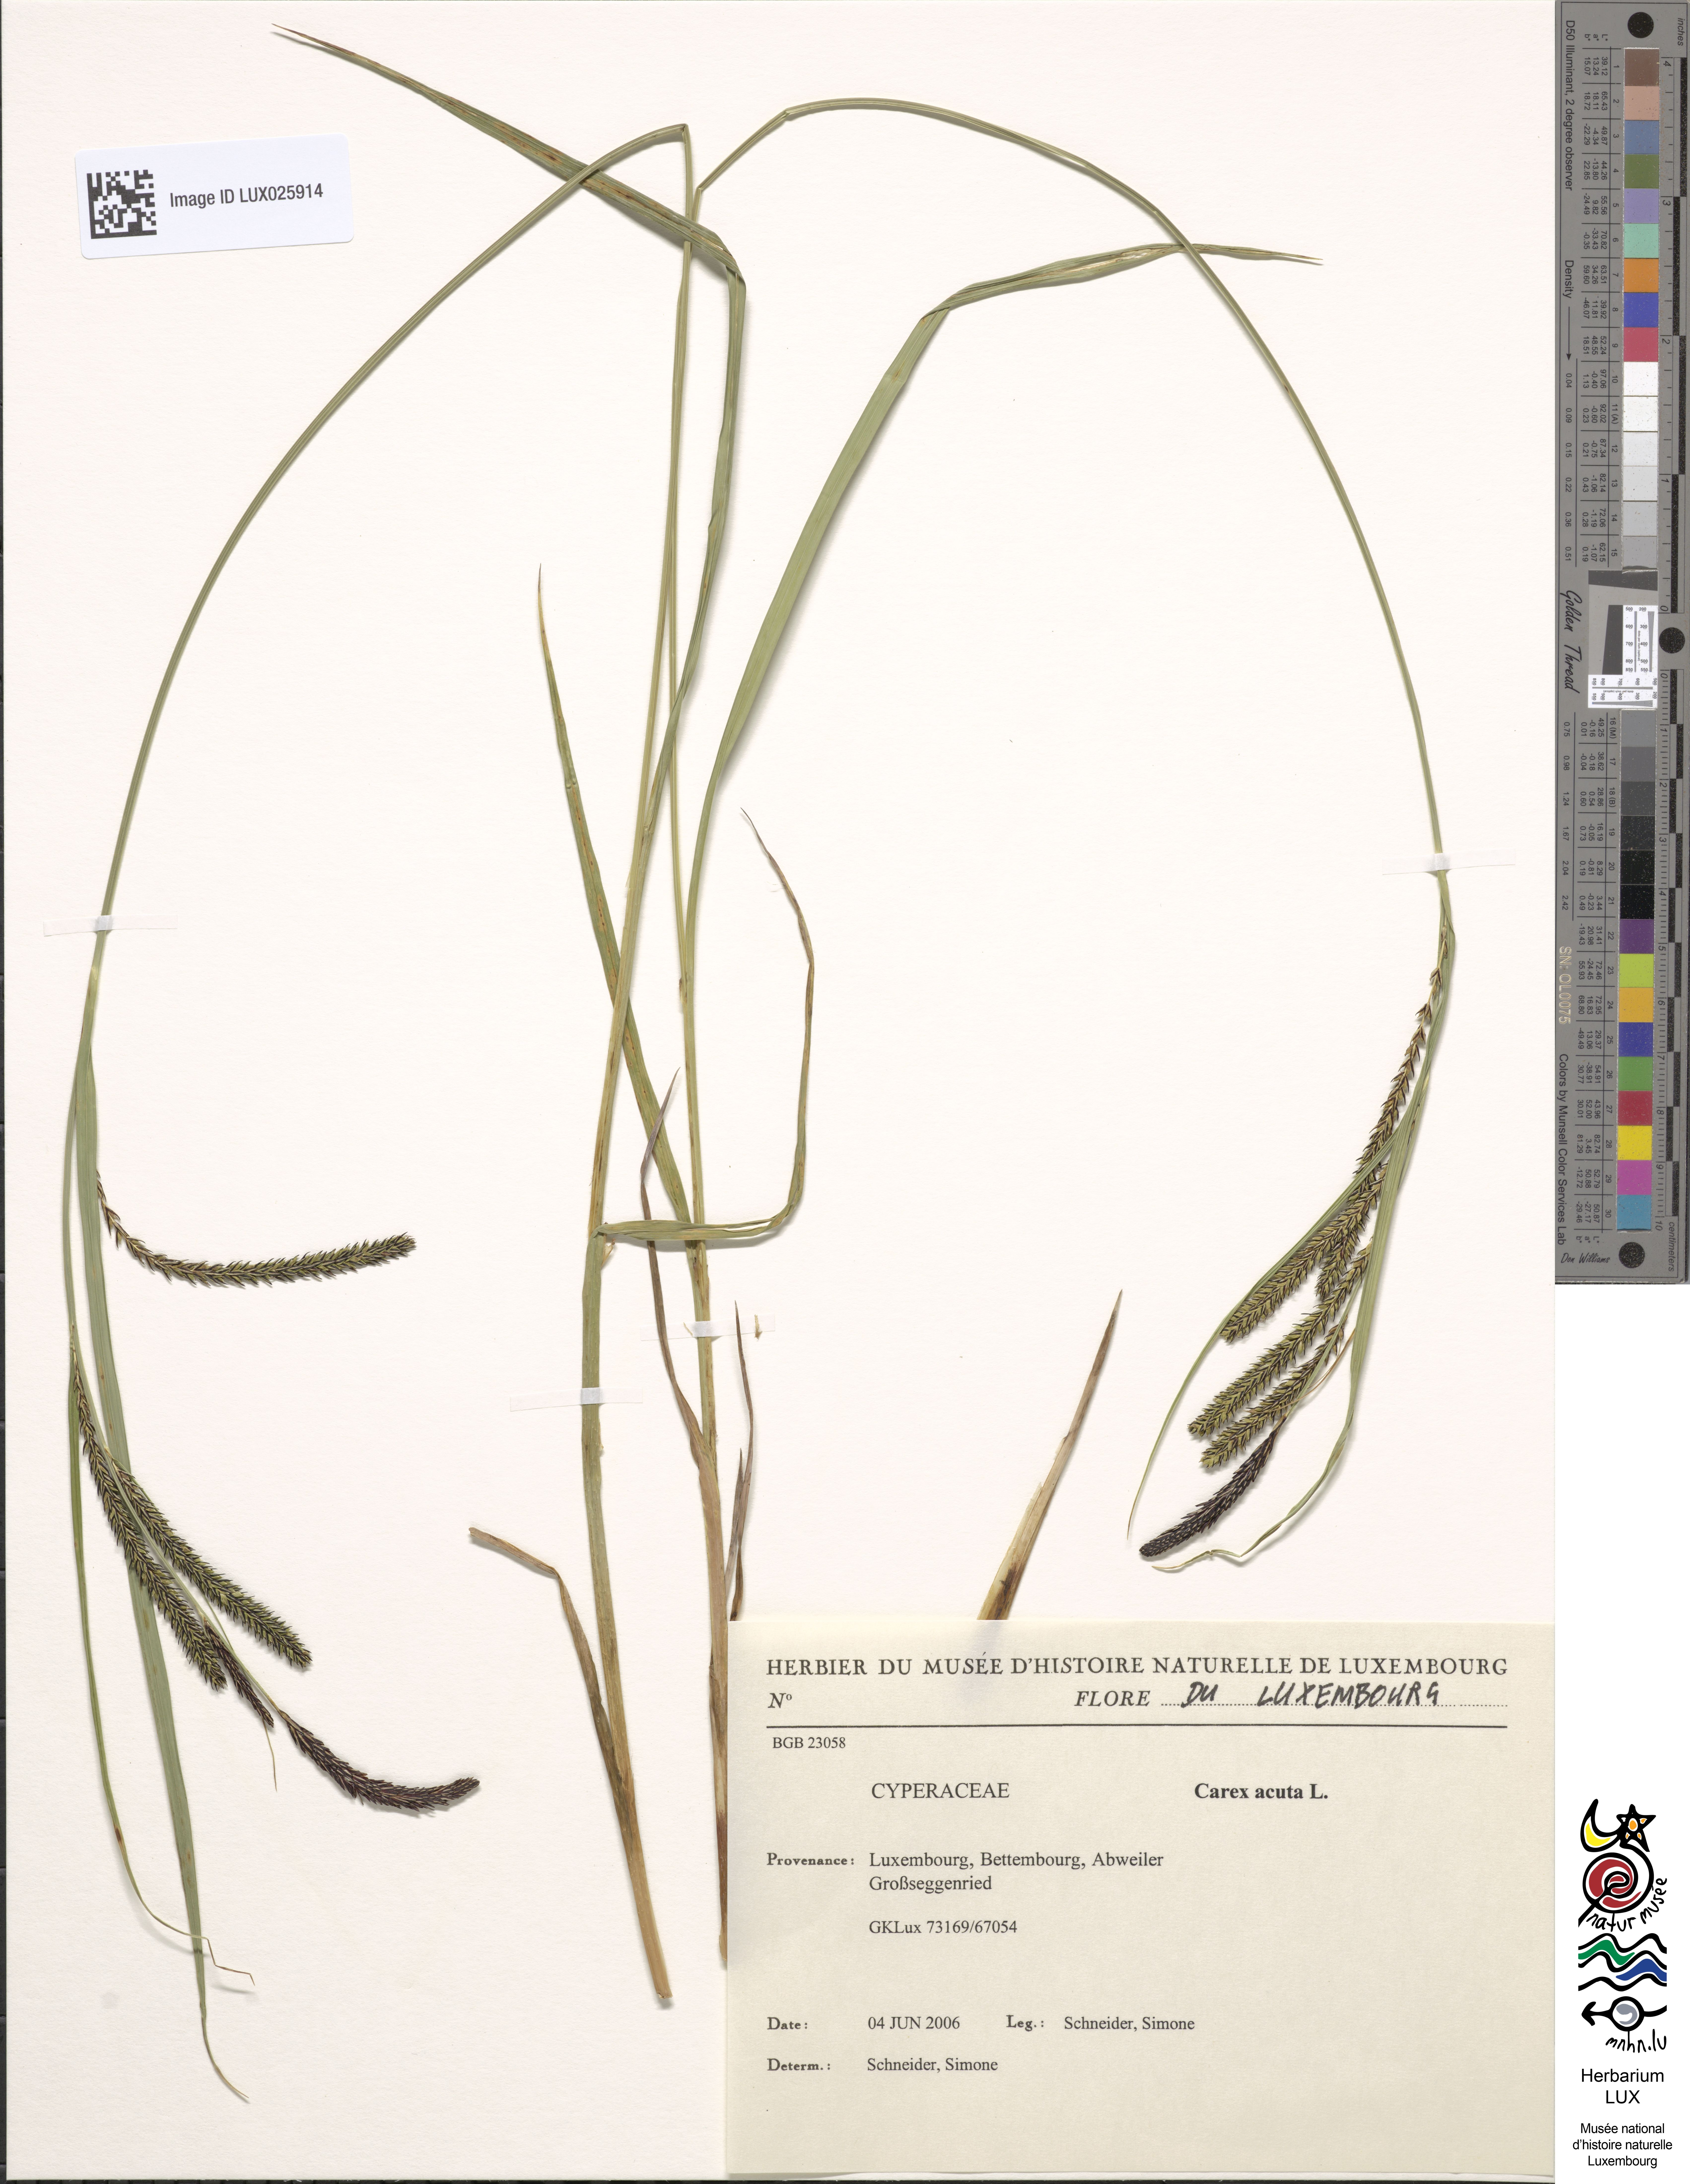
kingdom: Plantae
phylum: Tracheophyta
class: Liliopsida
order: Poales
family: Cyperaceae
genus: Carex
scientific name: Carex acuta
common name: Slender tufted-sedge
